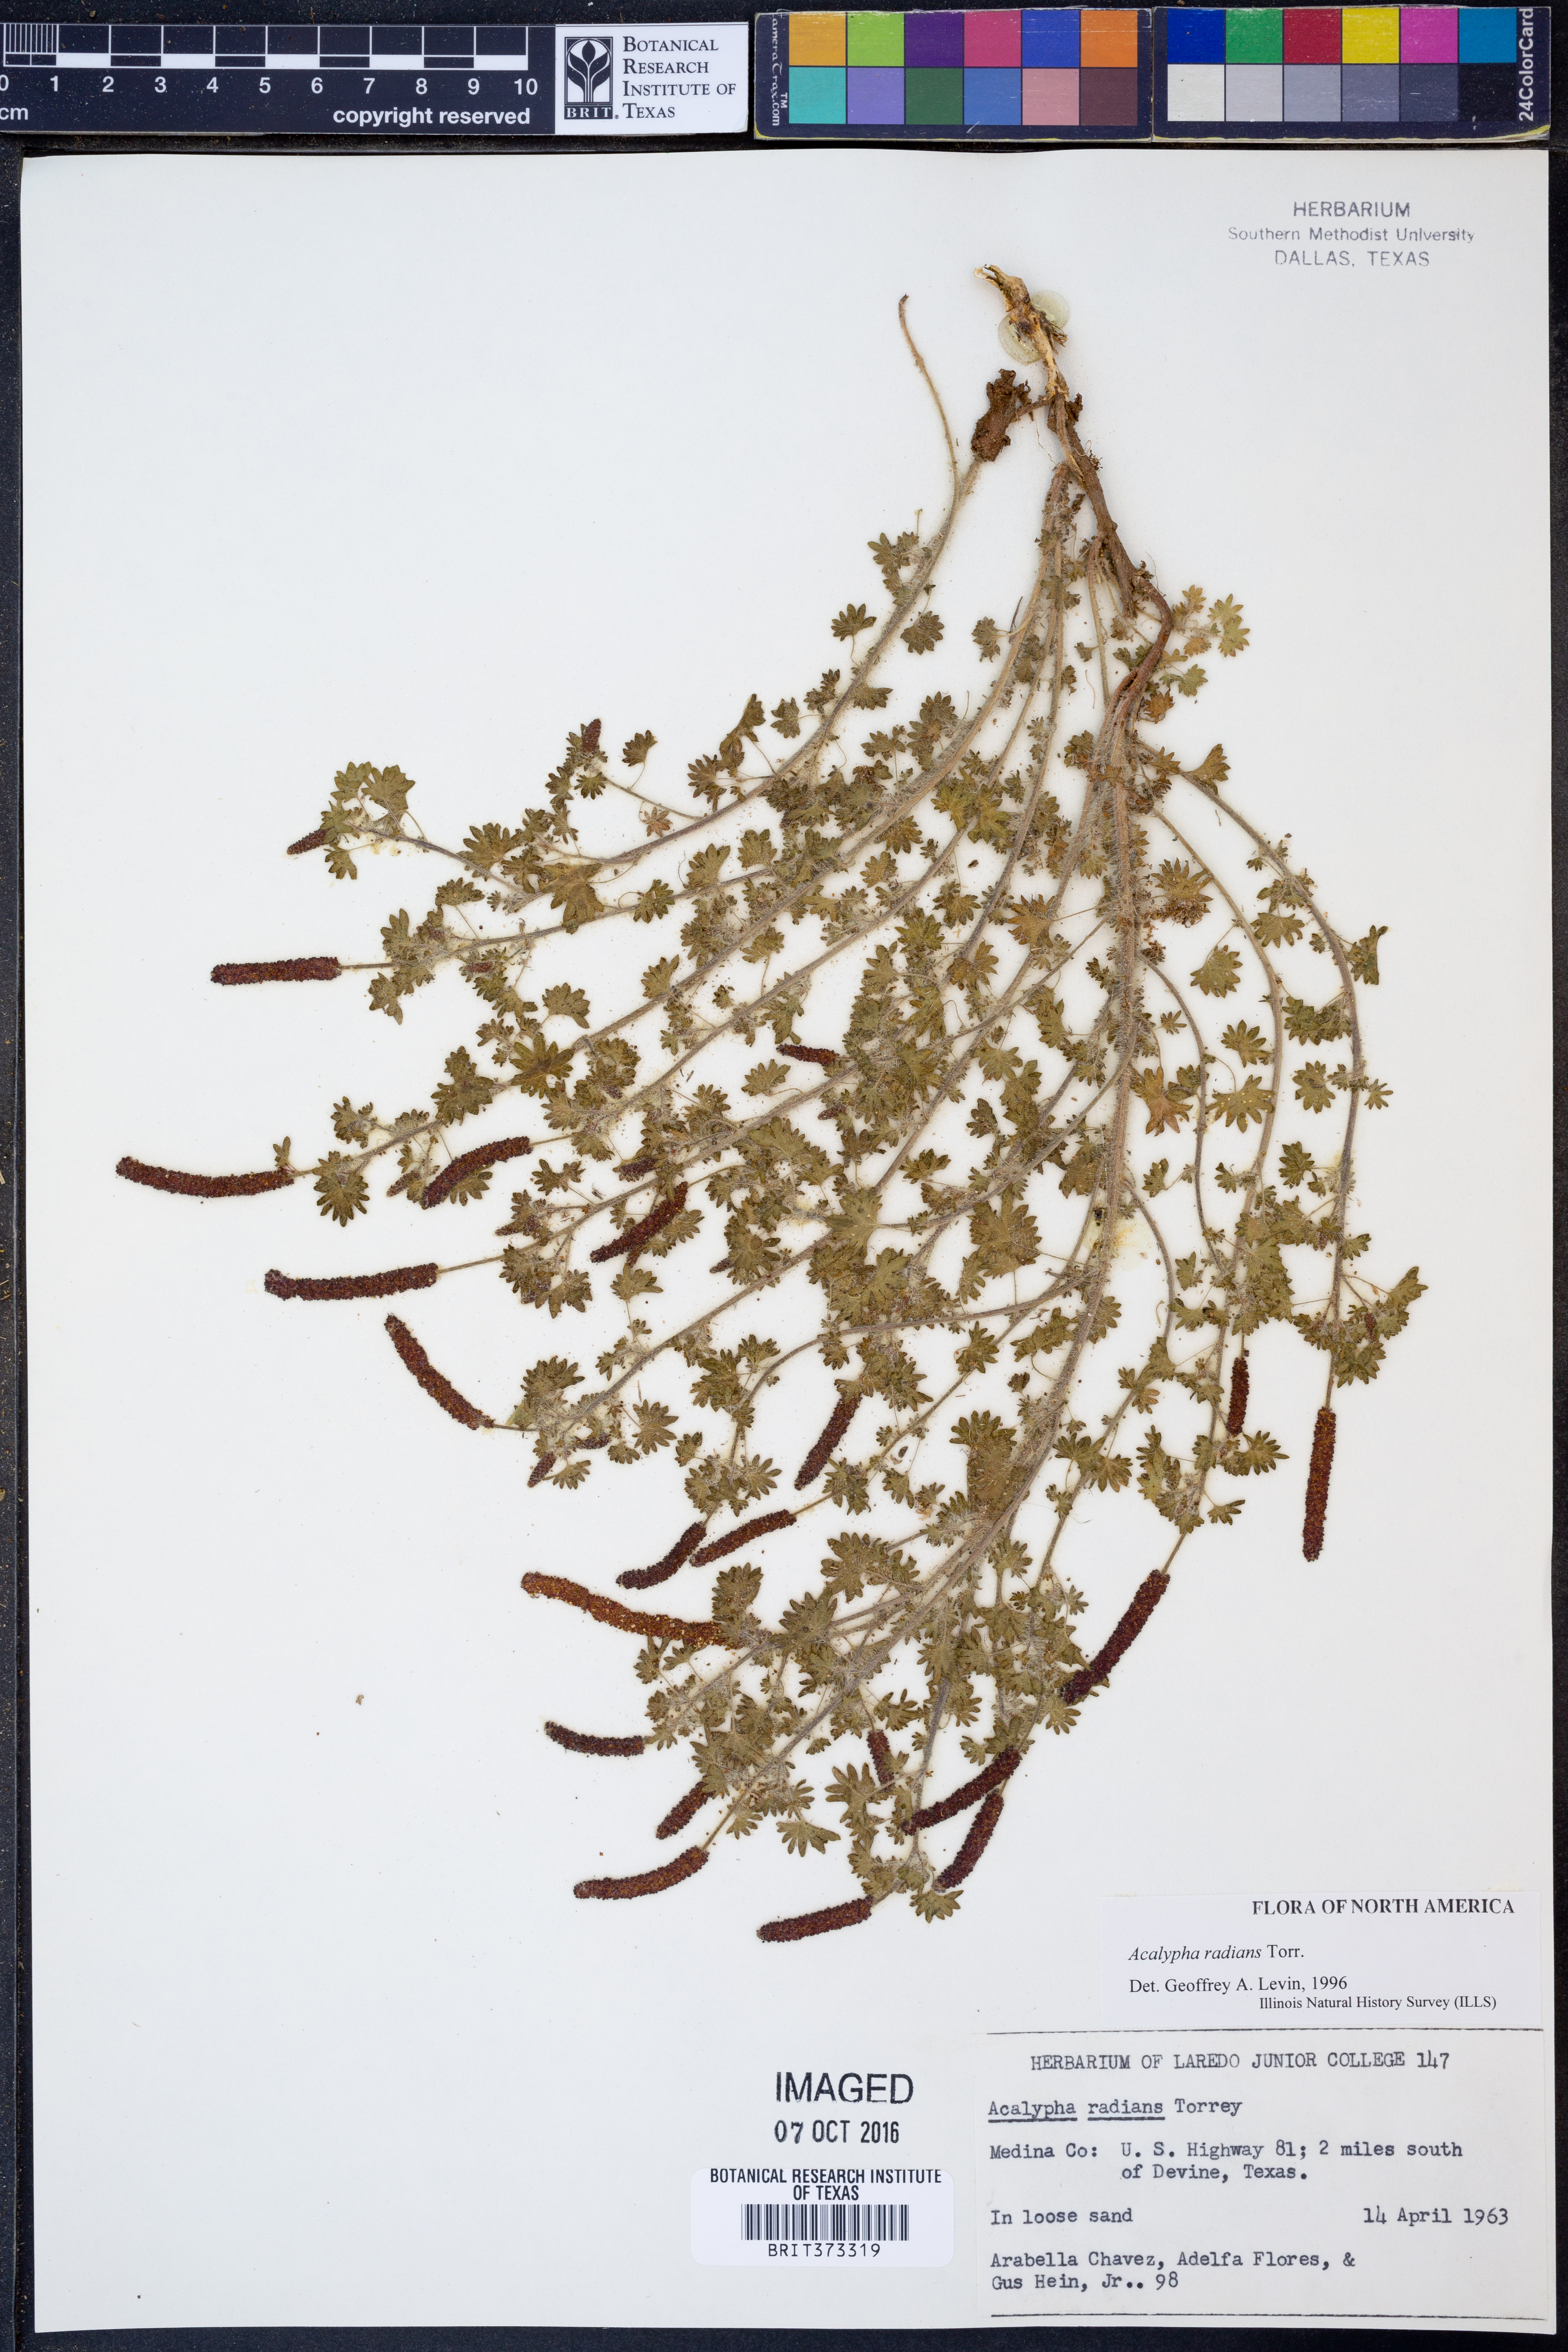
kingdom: Plantae
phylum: Tracheophyta
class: Magnoliopsida
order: Malpighiales
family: Euphorbiaceae
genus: Acalypha
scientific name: Acalypha radians
